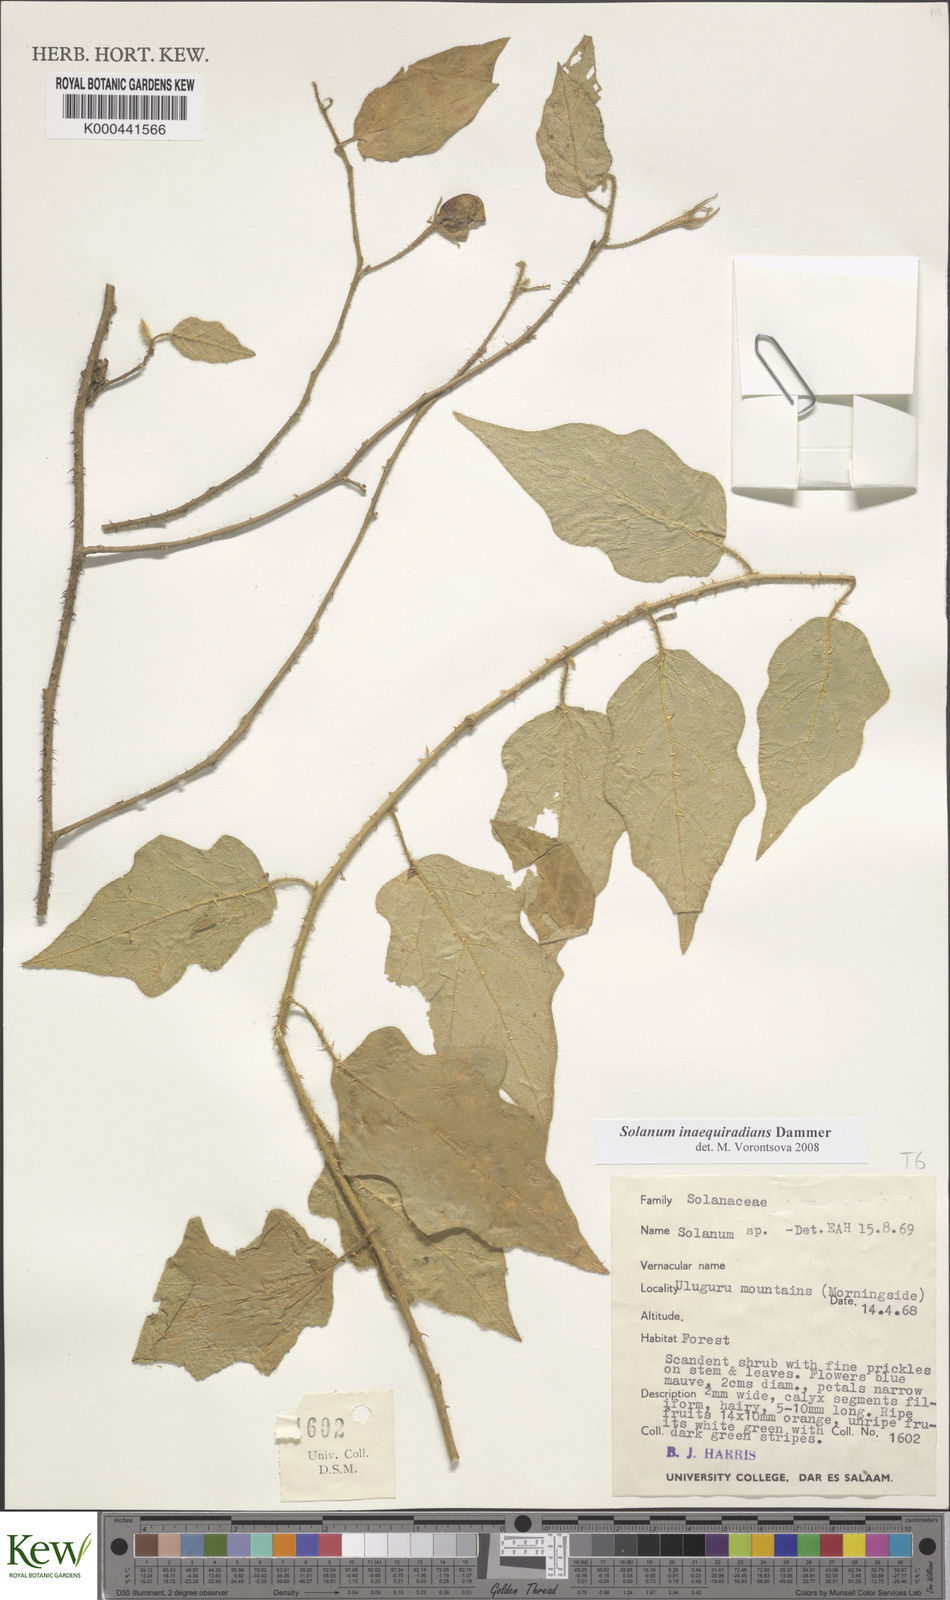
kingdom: Plantae
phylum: Tracheophyta
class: Magnoliopsida
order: Solanales
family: Solanaceae
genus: Solanum
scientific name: Solanum inaequiradians
